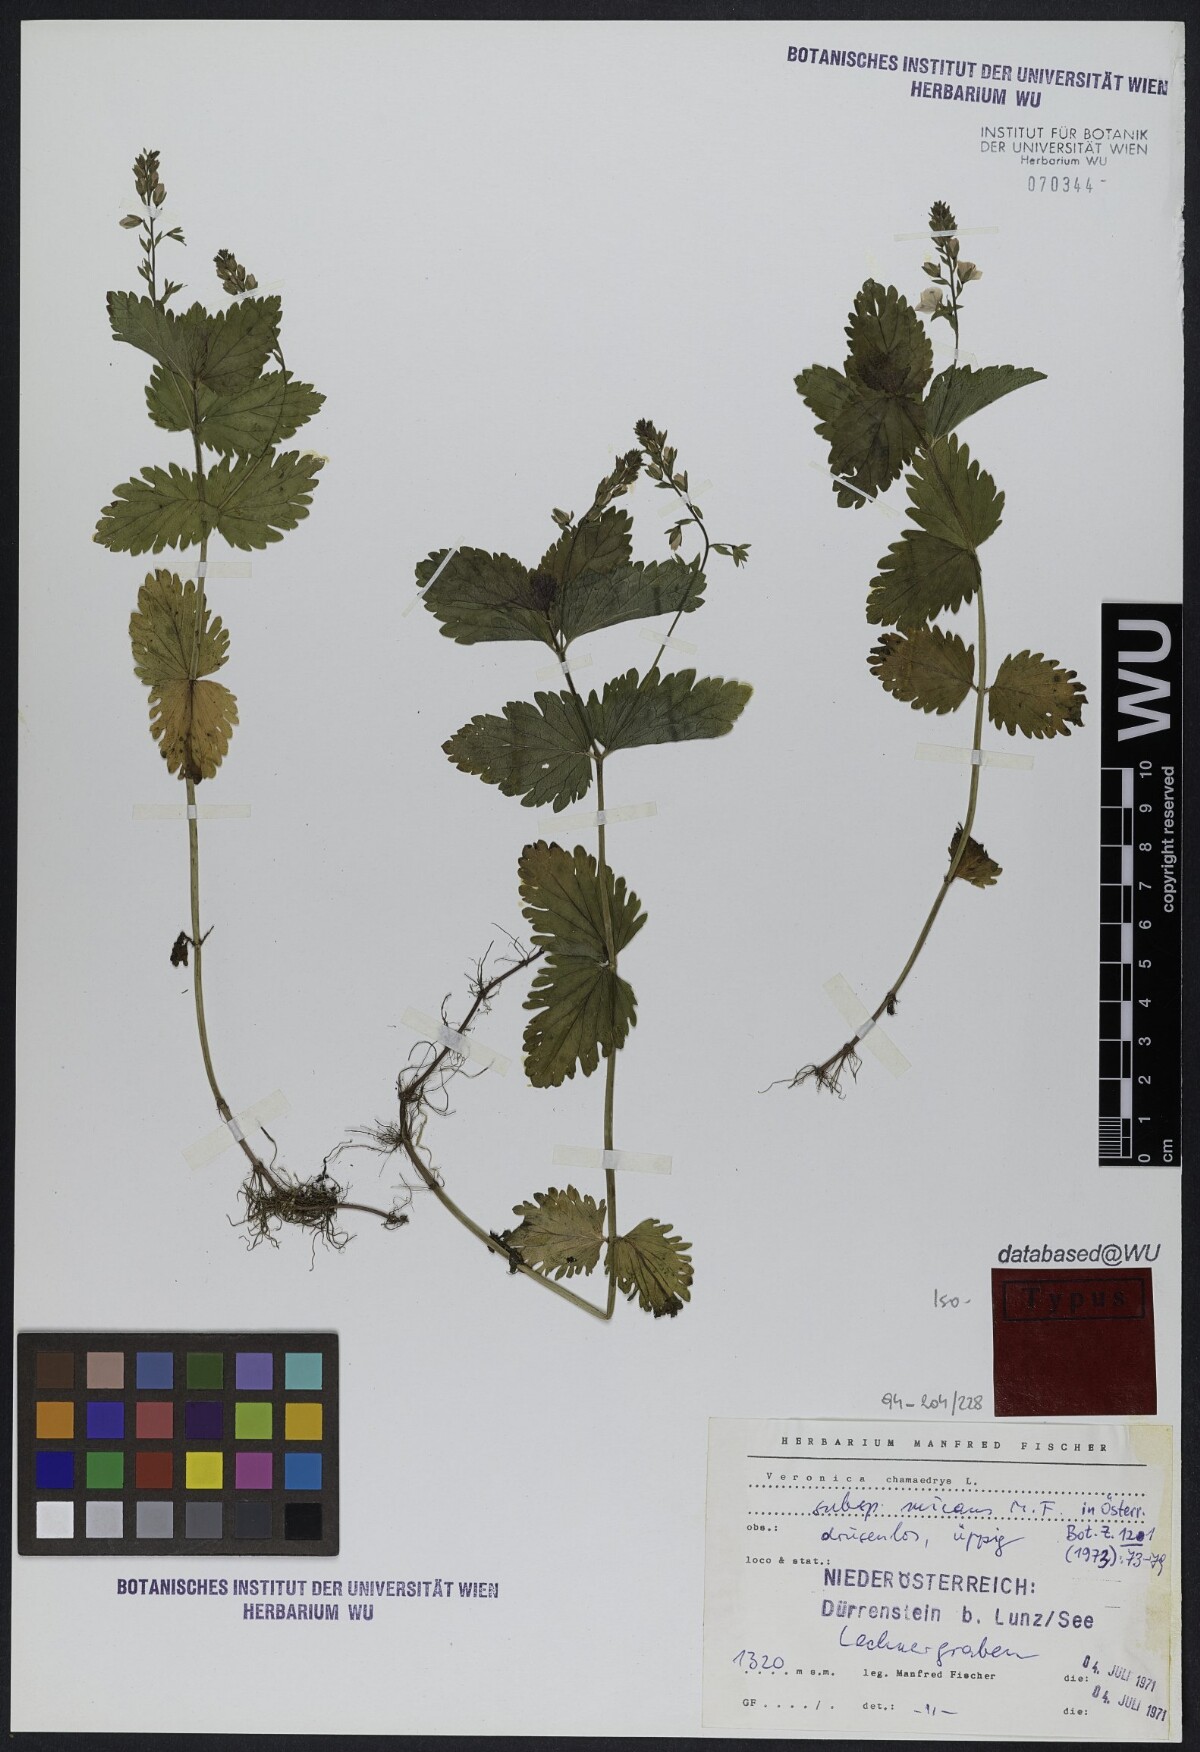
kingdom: Plantae
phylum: Tracheophyta
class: Magnoliopsida
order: Lamiales
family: Plantaginaceae
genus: Veronica
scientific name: Veronica chamaedrys
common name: Germander speedwell
